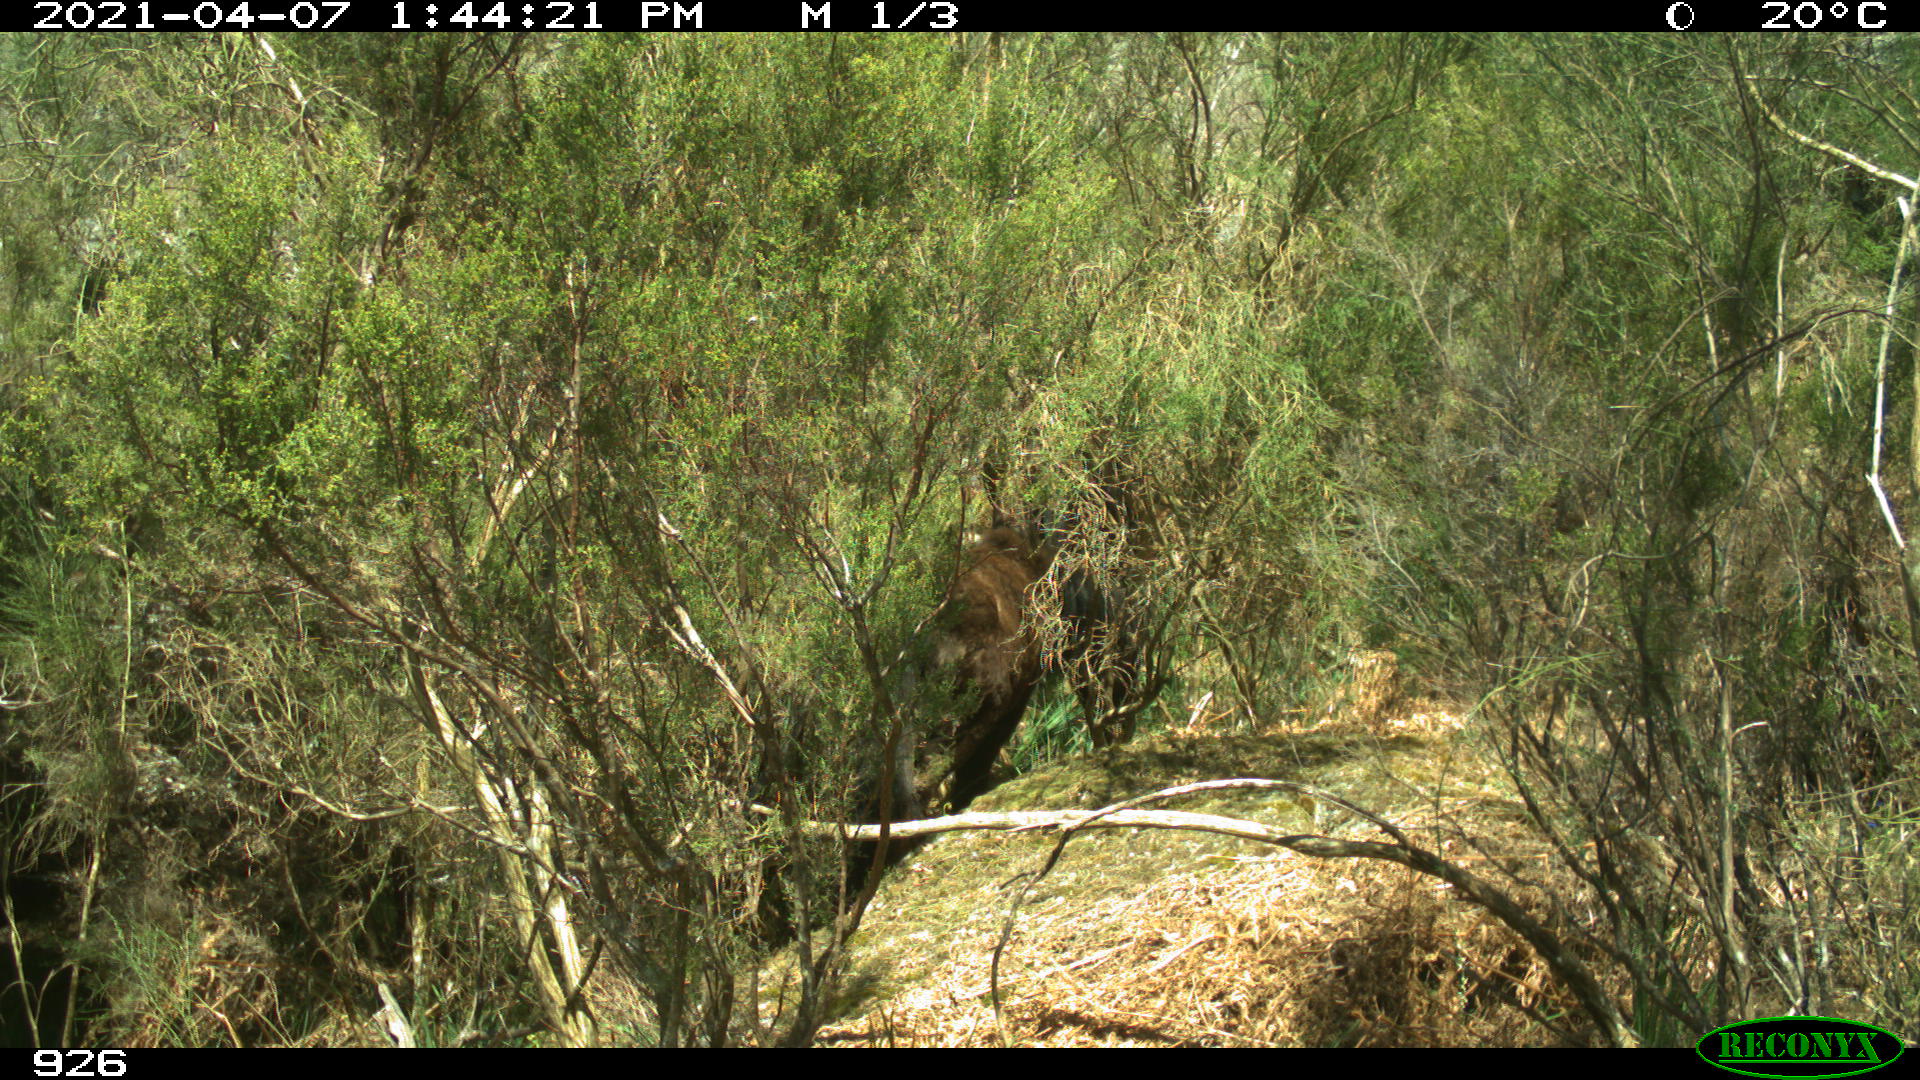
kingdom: Animalia
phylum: Chordata
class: Mammalia
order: Perissodactyla
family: Equidae
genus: Equus
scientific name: Equus caballus
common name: Horse
